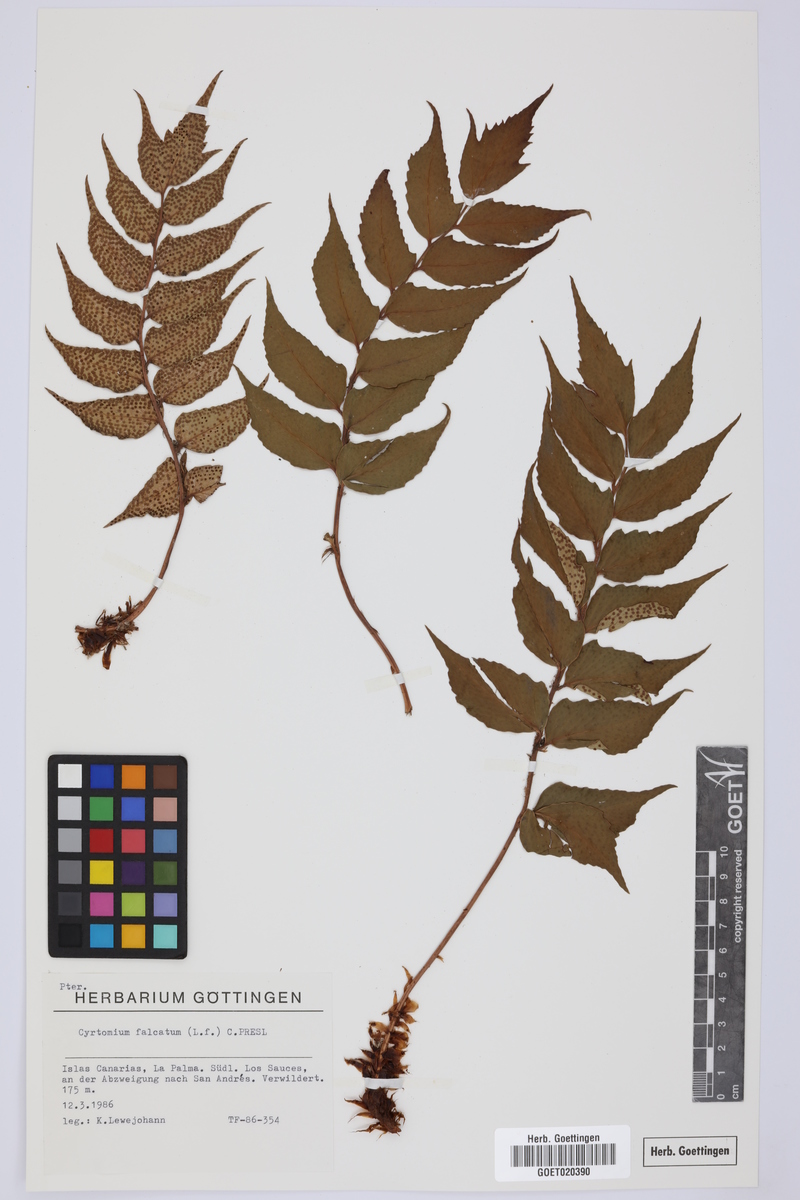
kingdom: Plantae
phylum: Tracheophyta
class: Polypodiopsida
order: Polypodiales
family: Dryopteridaceae
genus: Cyrtomium
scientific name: Cyrtomium falcatum
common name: House holly-fern
